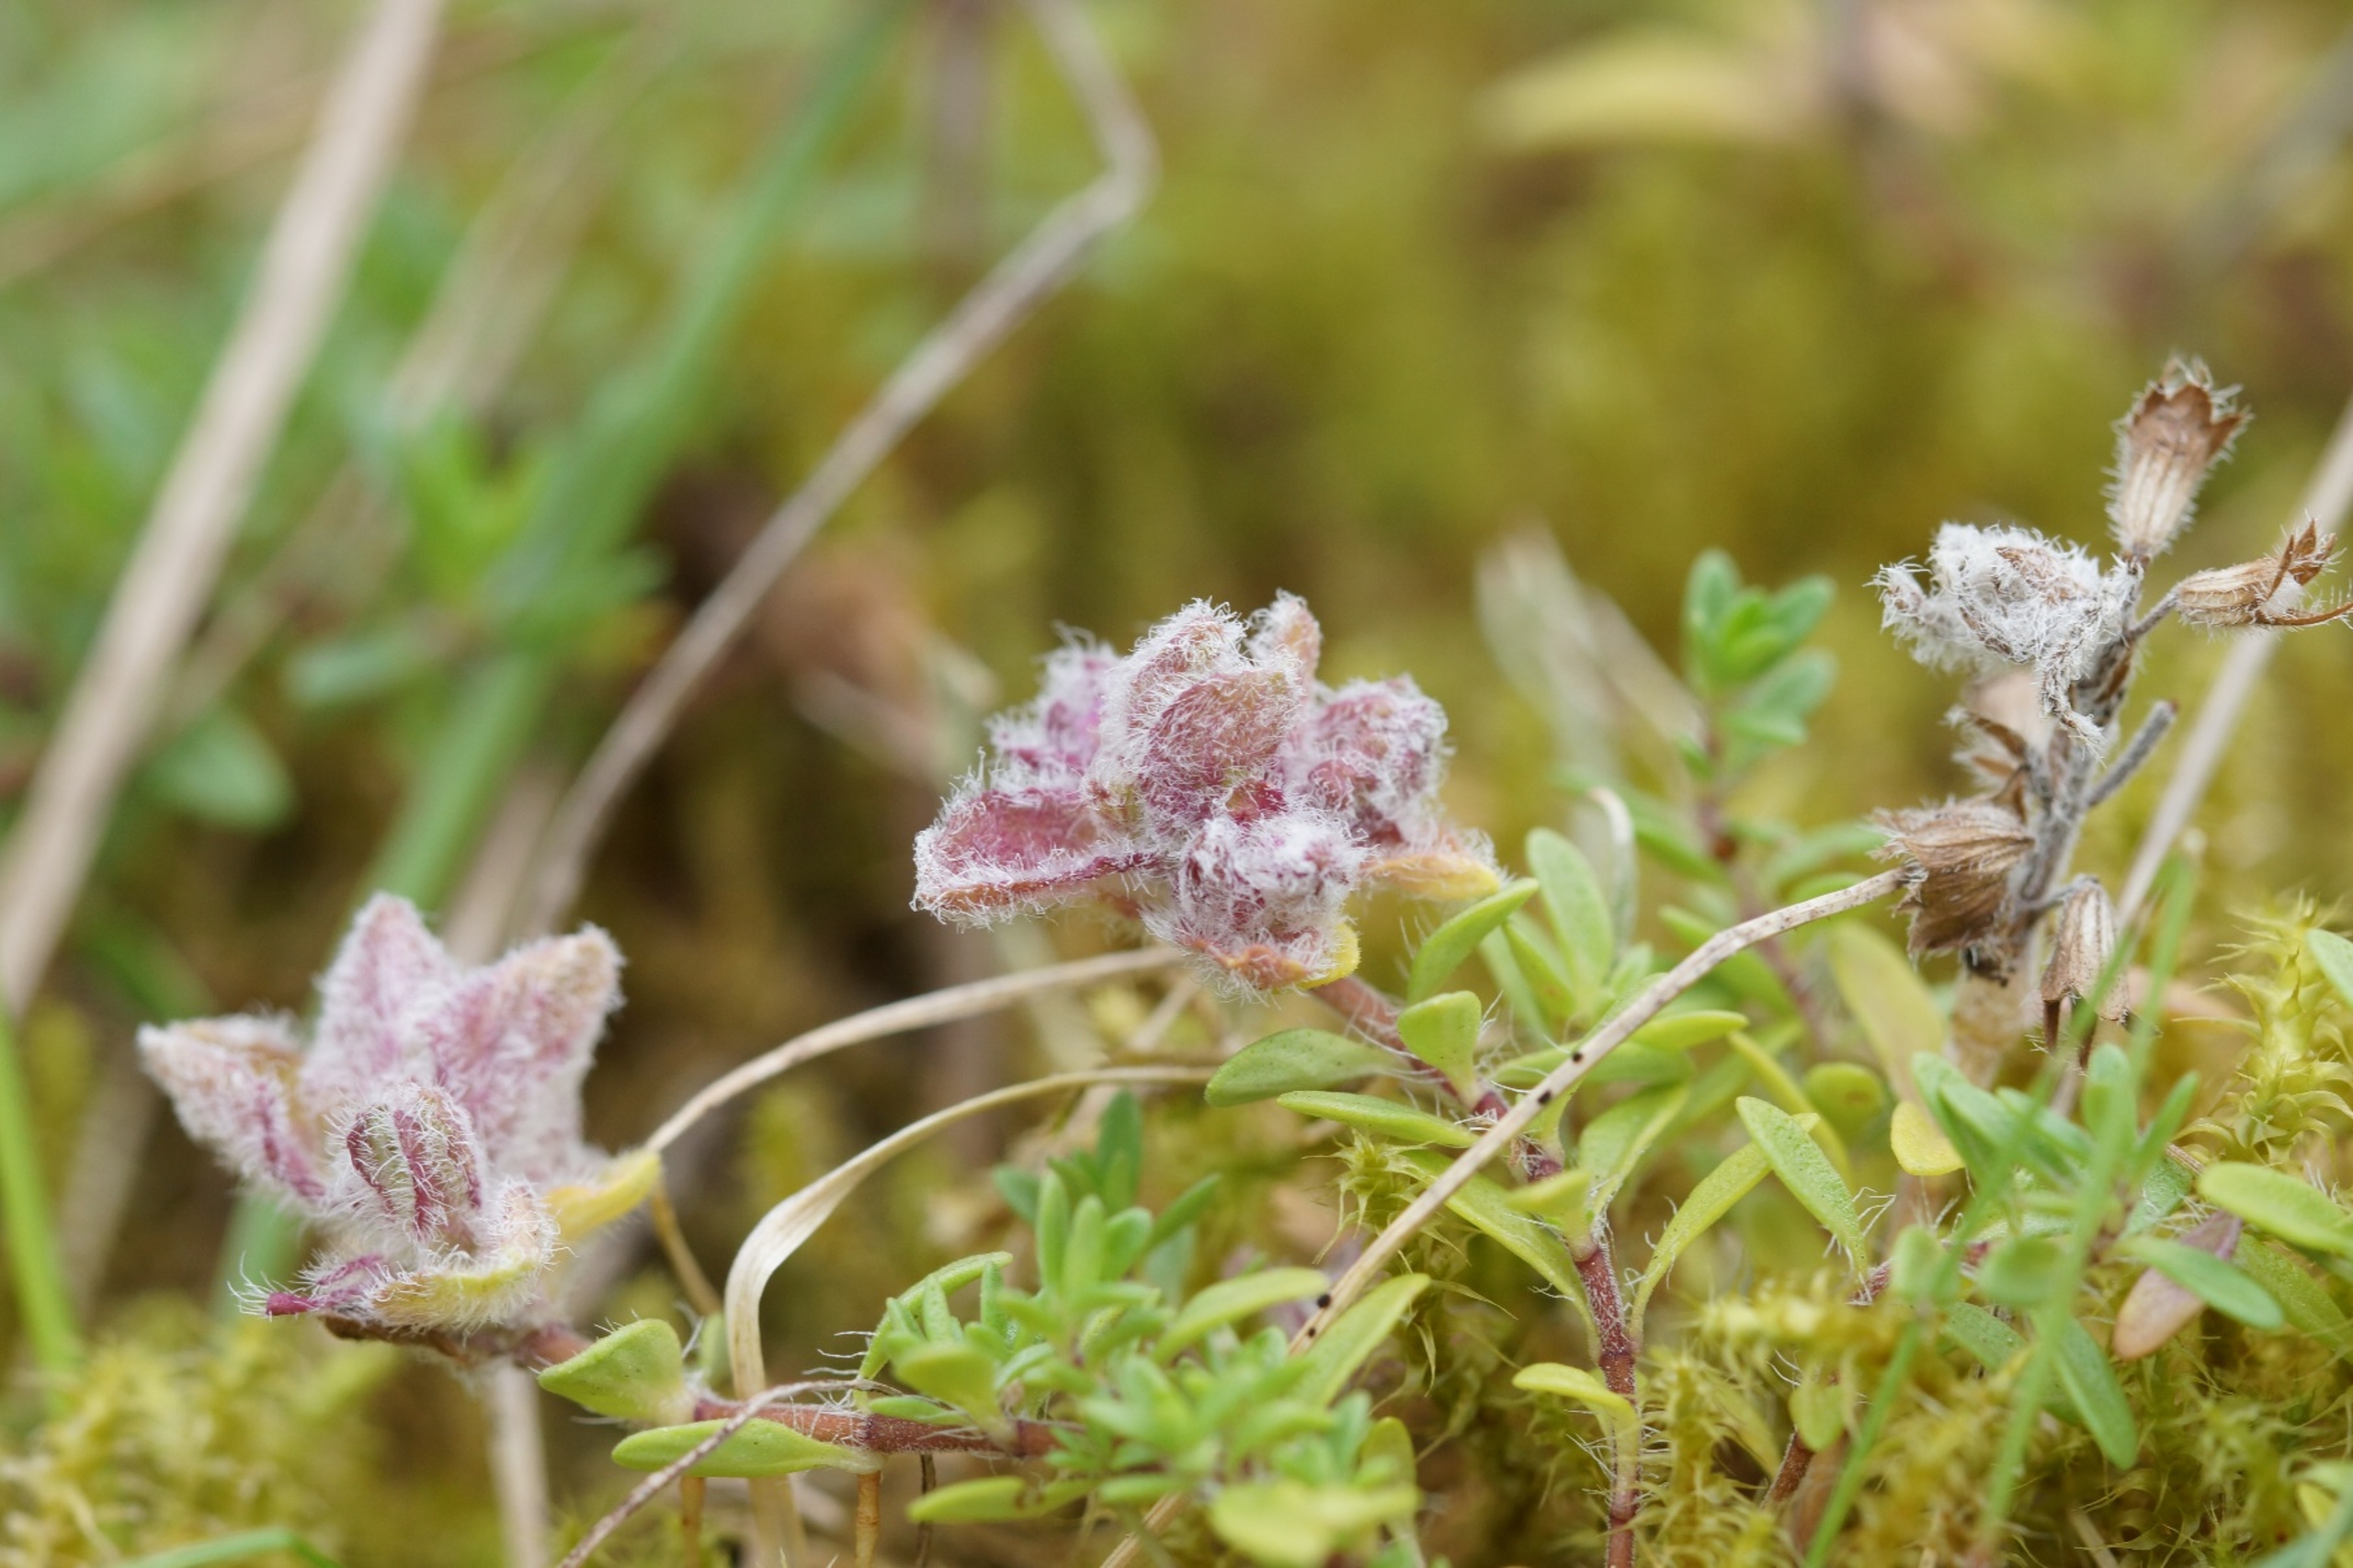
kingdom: Animalia
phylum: Arthropoda
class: Arachnida
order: Trombidiformes
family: Eriophyidae
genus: Aceria
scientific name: Aceria thomasi
